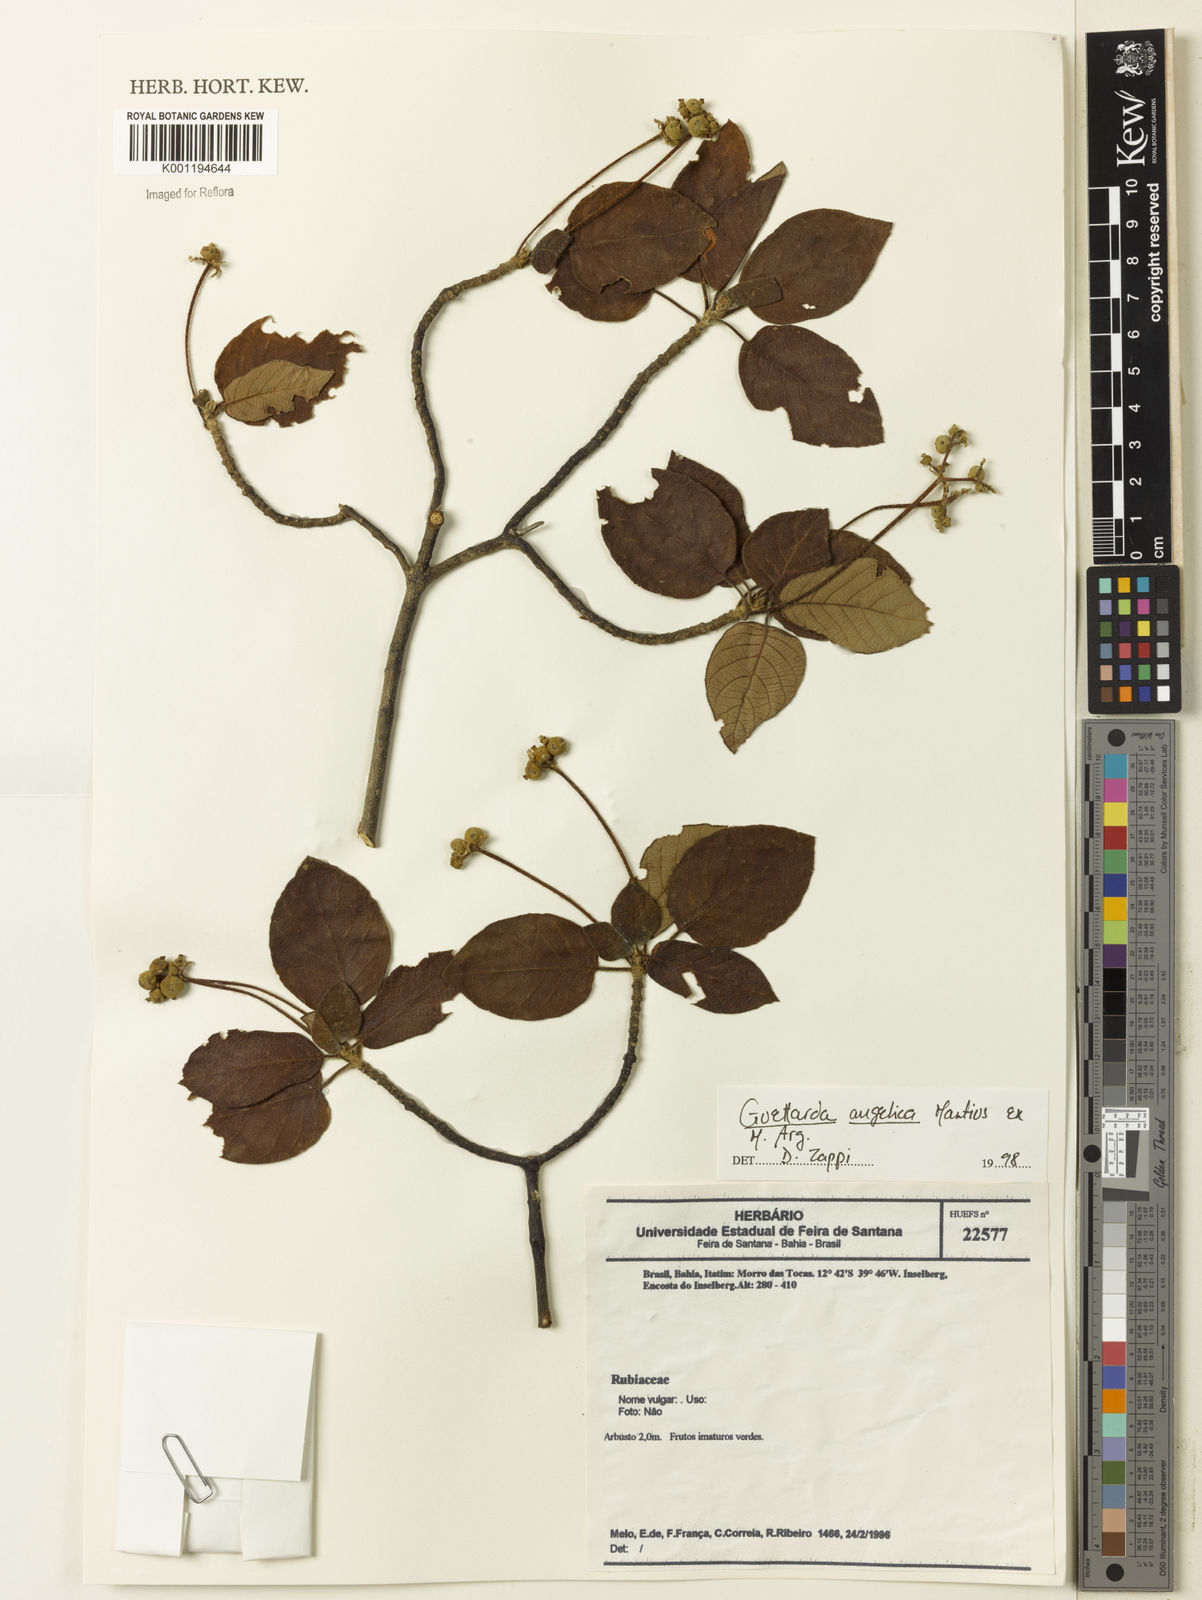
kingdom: Plantae
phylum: Tracheophyta
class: Magnoliopsida
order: Gentianales
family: Rubiaceae
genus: Guettarda
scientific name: Guettarda
